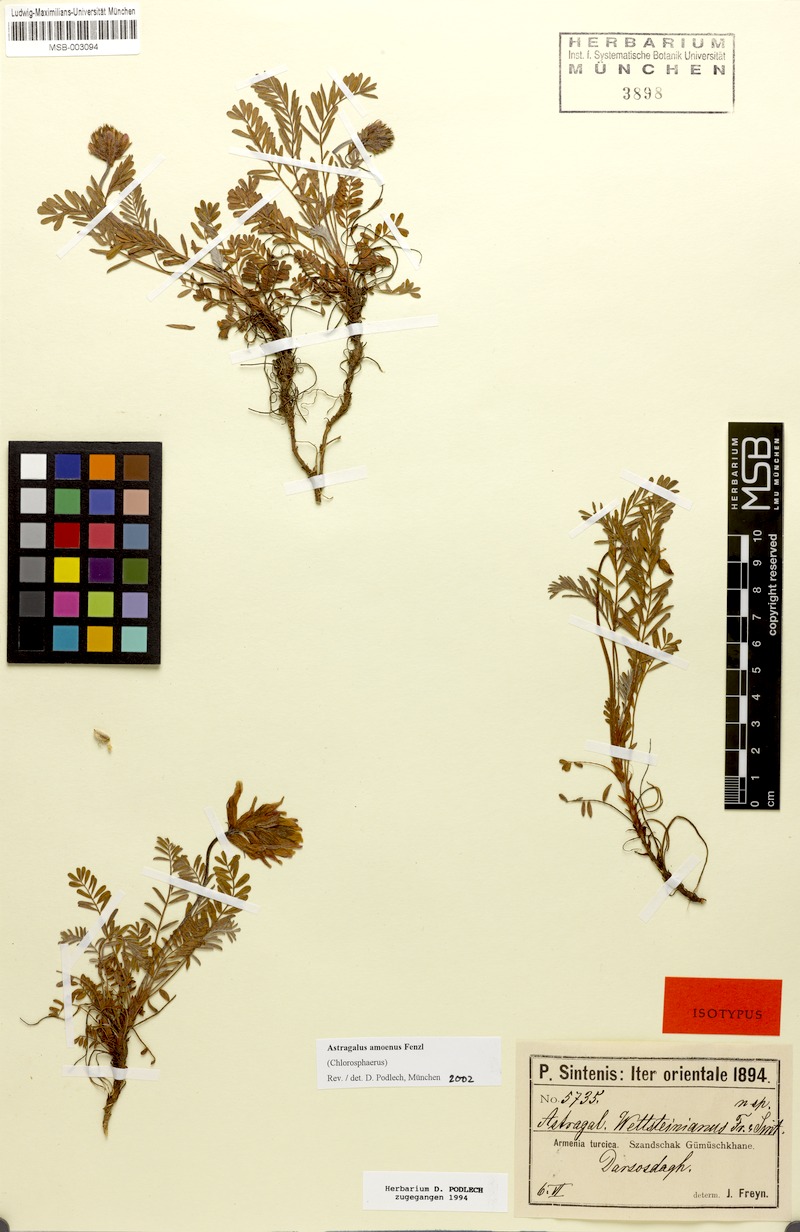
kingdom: Plantae
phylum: Tracheophyta
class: Magnoliopsida
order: Fabales
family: Fabaceae
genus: Astragalus
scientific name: Astragalus amoenus
